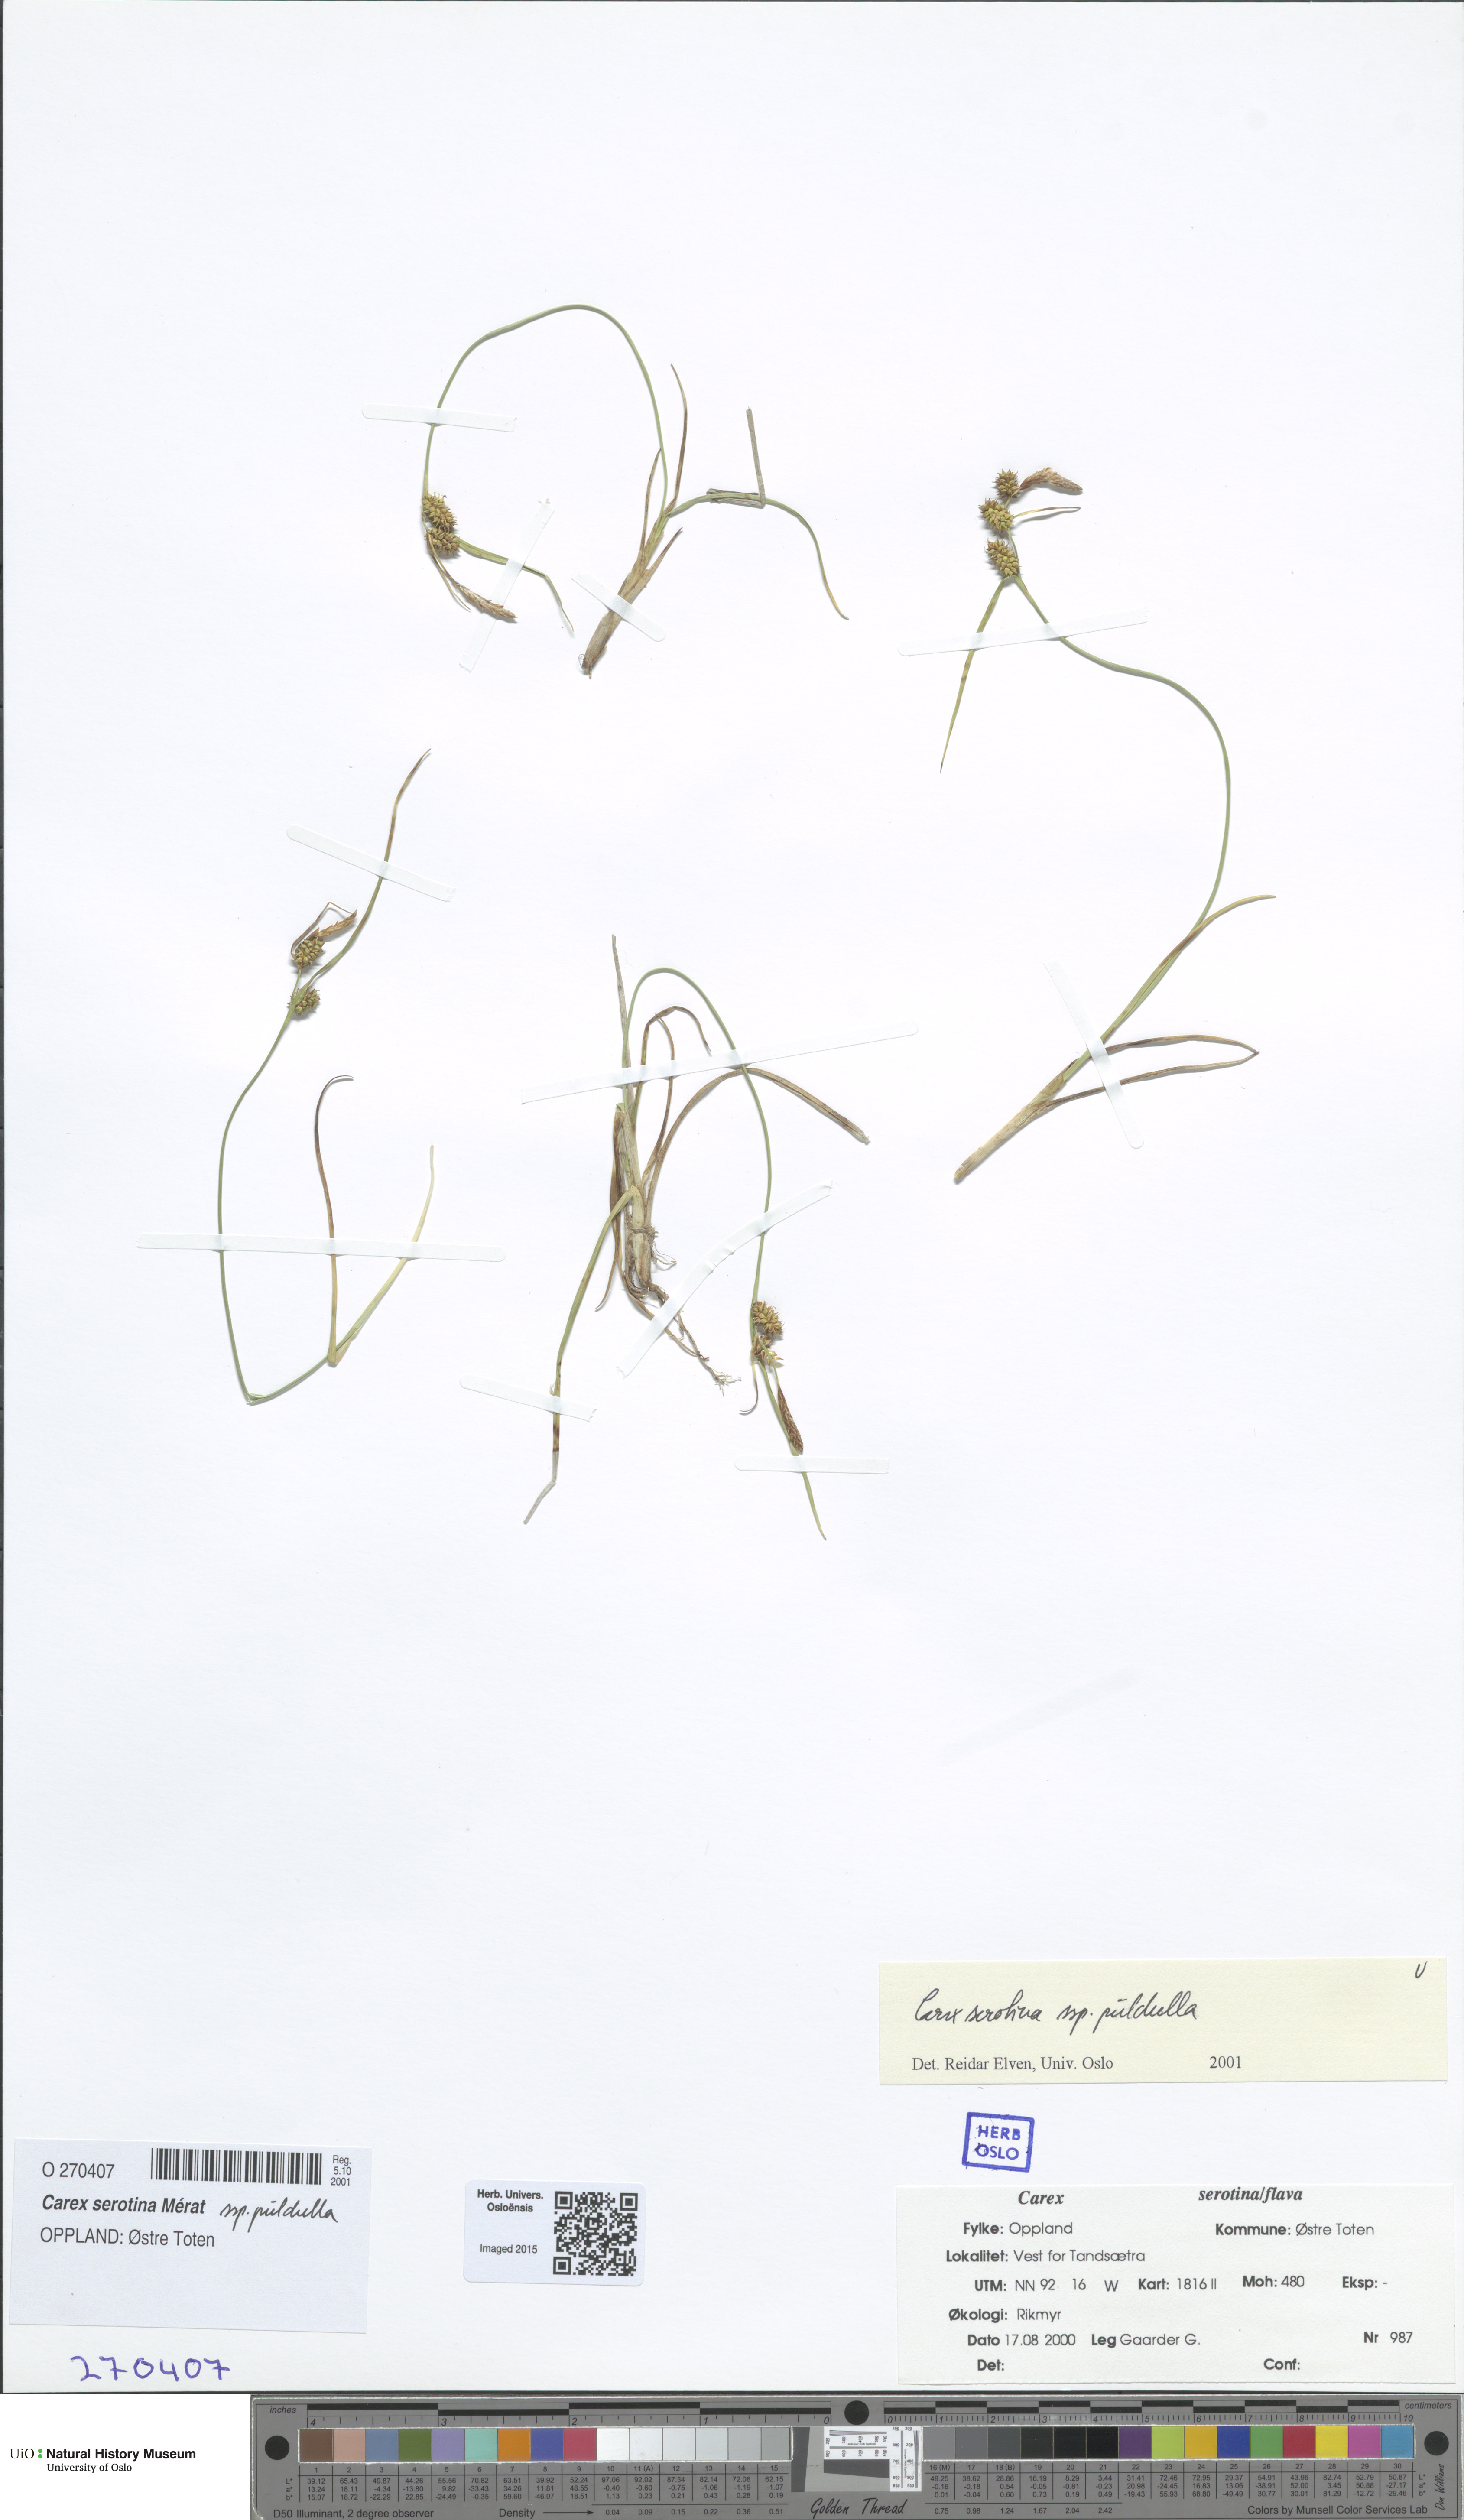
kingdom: Plantae
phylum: Tracheophyta
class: Liliopsida
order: Poales
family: Cyperaceae
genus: Carex
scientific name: Carex oederi
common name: Common & small-fruited yellow-sedge
